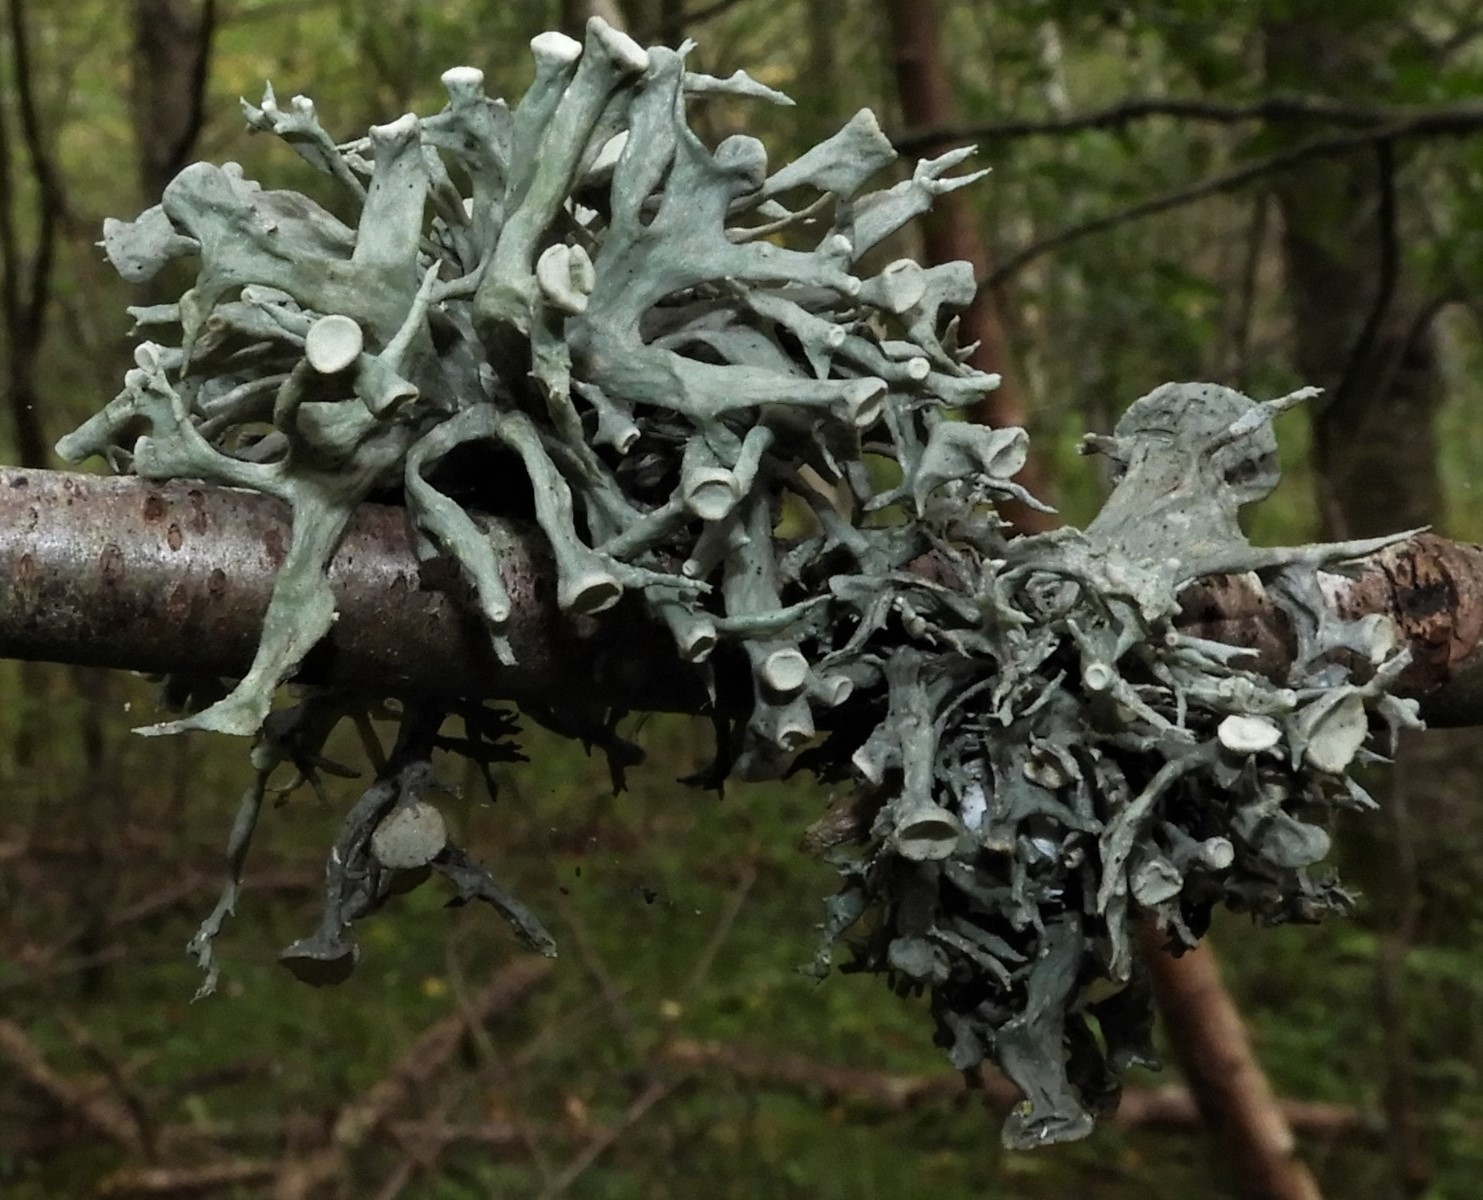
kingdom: Fungi
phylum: Ascomycota
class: Lecanoromycetes
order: Lecanorales
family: Ramalinaceae
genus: Ramalina
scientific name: Ramalina fastigiata
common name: tue-grenlav
